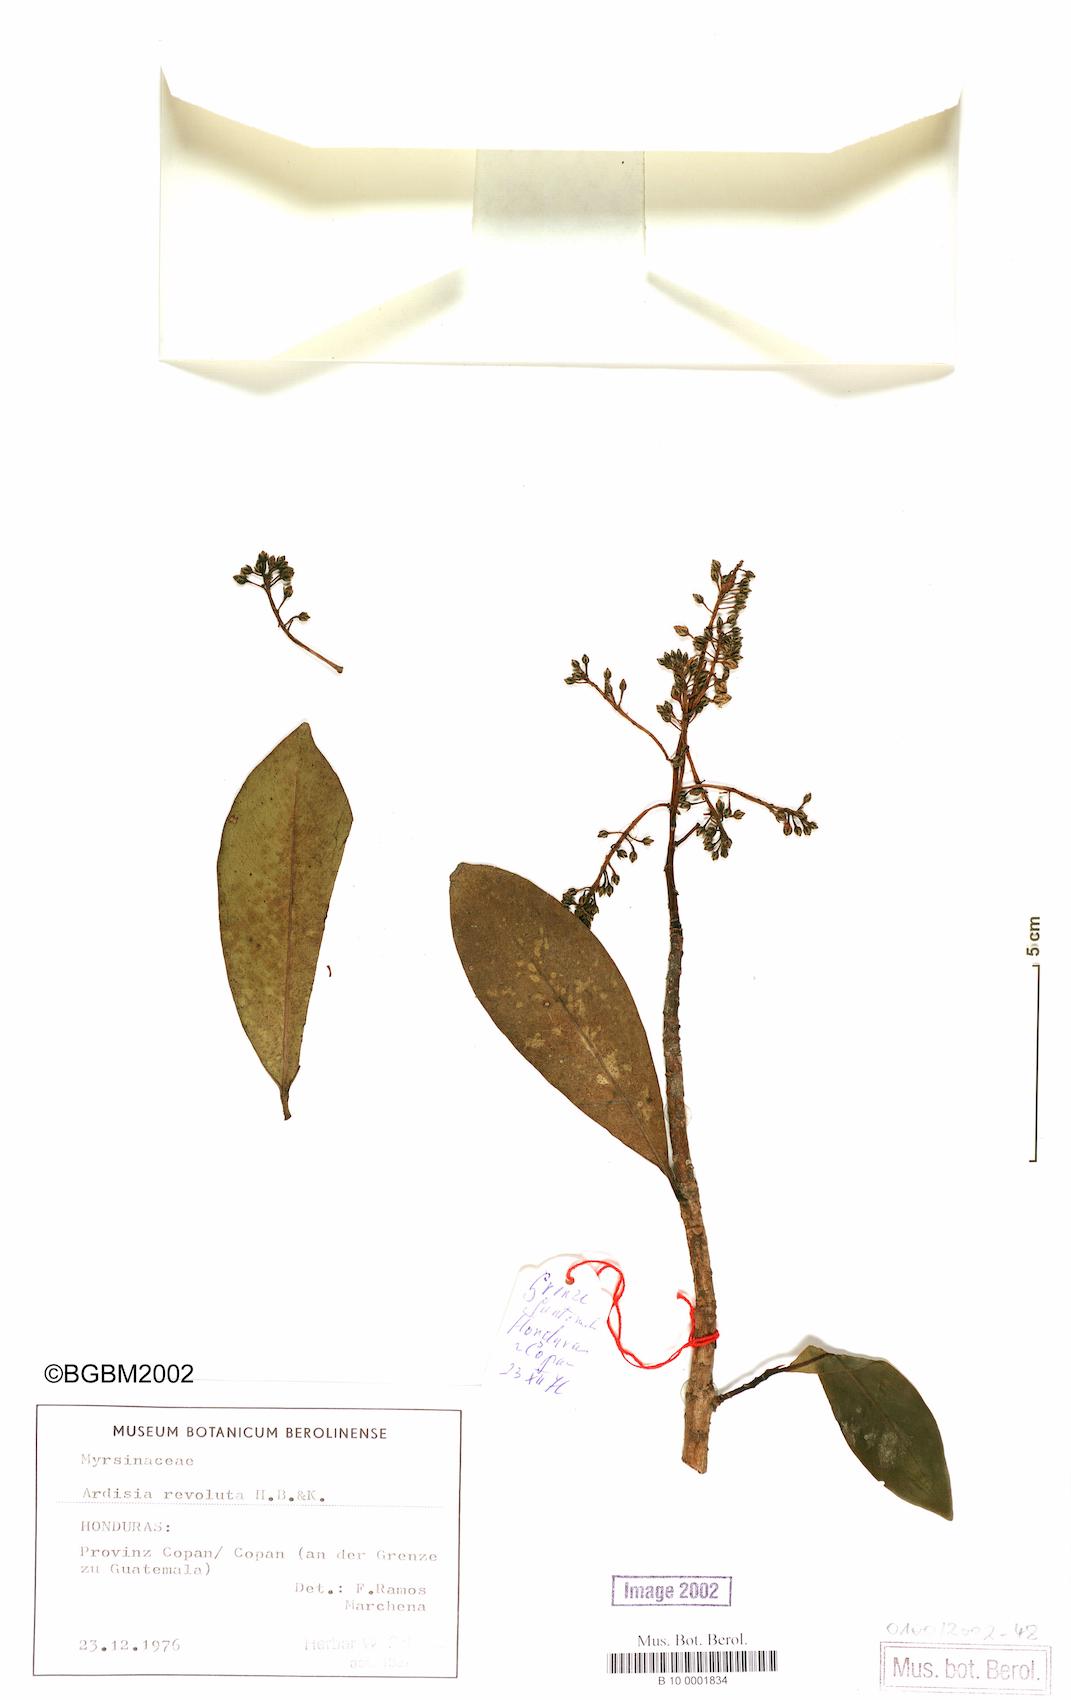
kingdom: Plantae
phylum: Tracheophyta
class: Magnoliopsida
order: Ericales
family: Primulaceae
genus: Ardisia
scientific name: Ardisia revoluta
